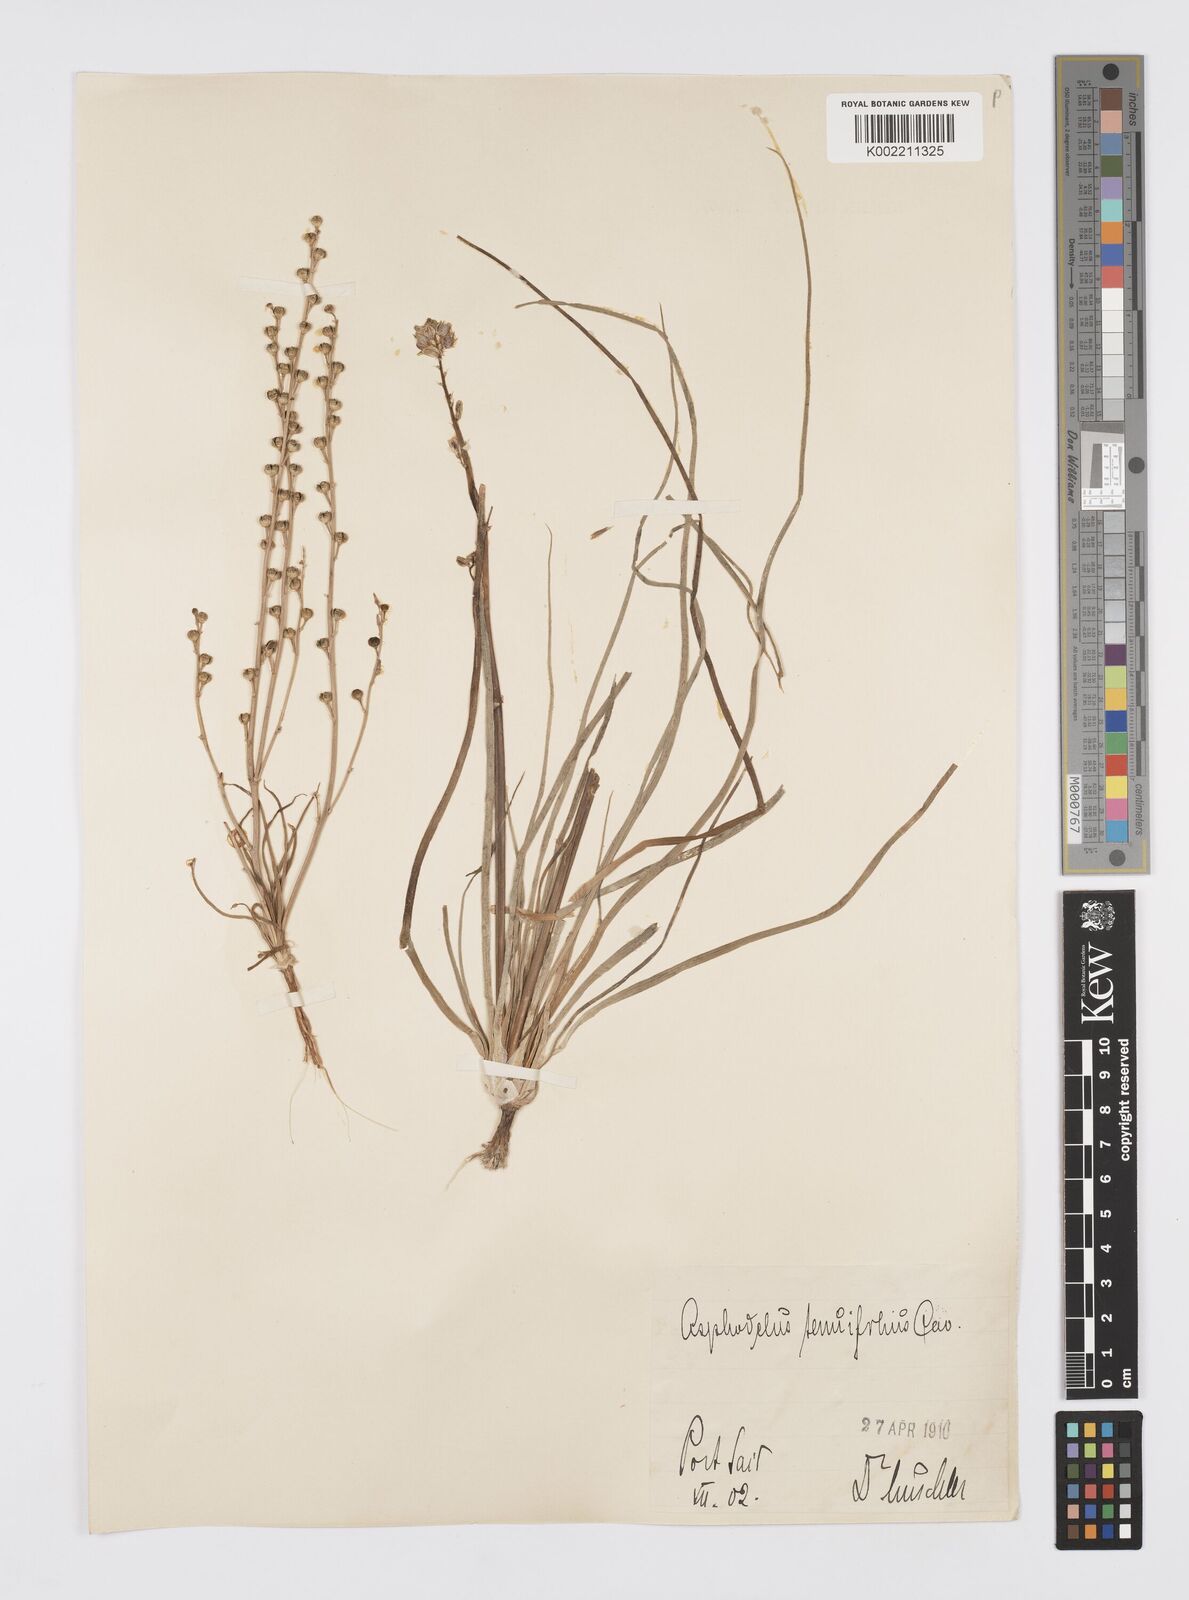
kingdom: Plantae
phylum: Tracheophyta
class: Liliopsida
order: Asparagales
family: Asphodelaceae
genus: Asphodelus
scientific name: Asphodelus tenuifolius
